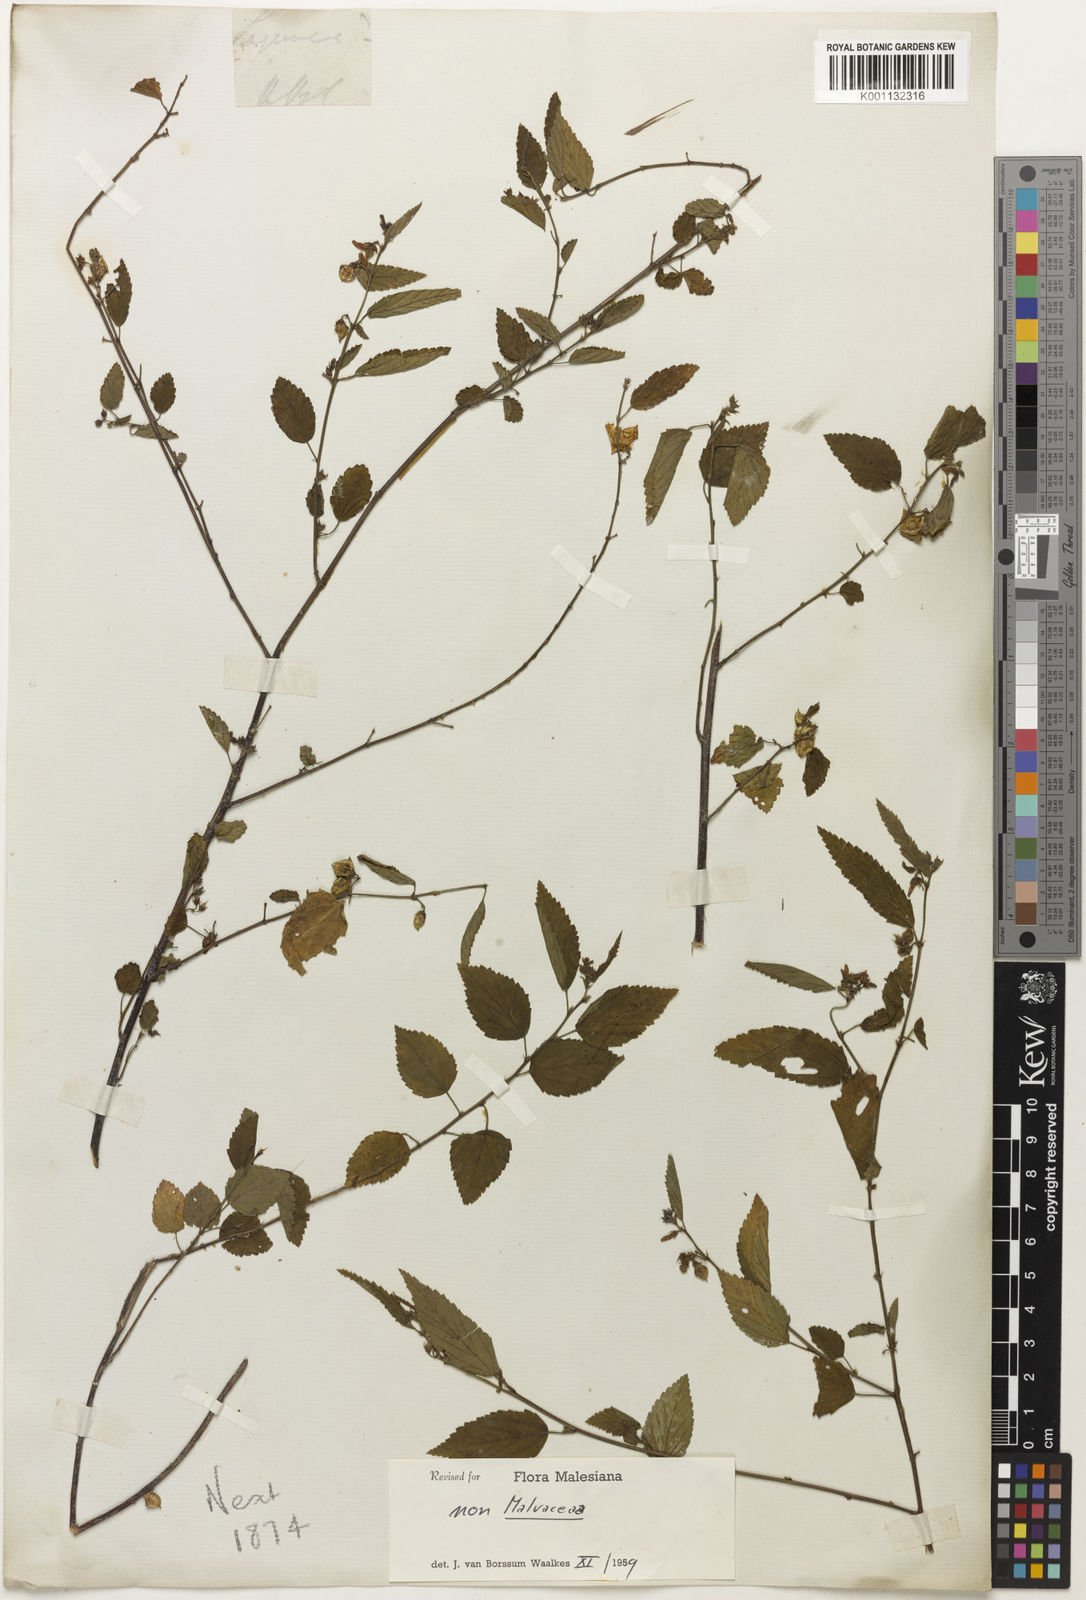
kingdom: Plantae
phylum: Tracheophyta
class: Magnoliopsida
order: Malvales
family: Sterculiaceae
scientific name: Sterculiaceae
